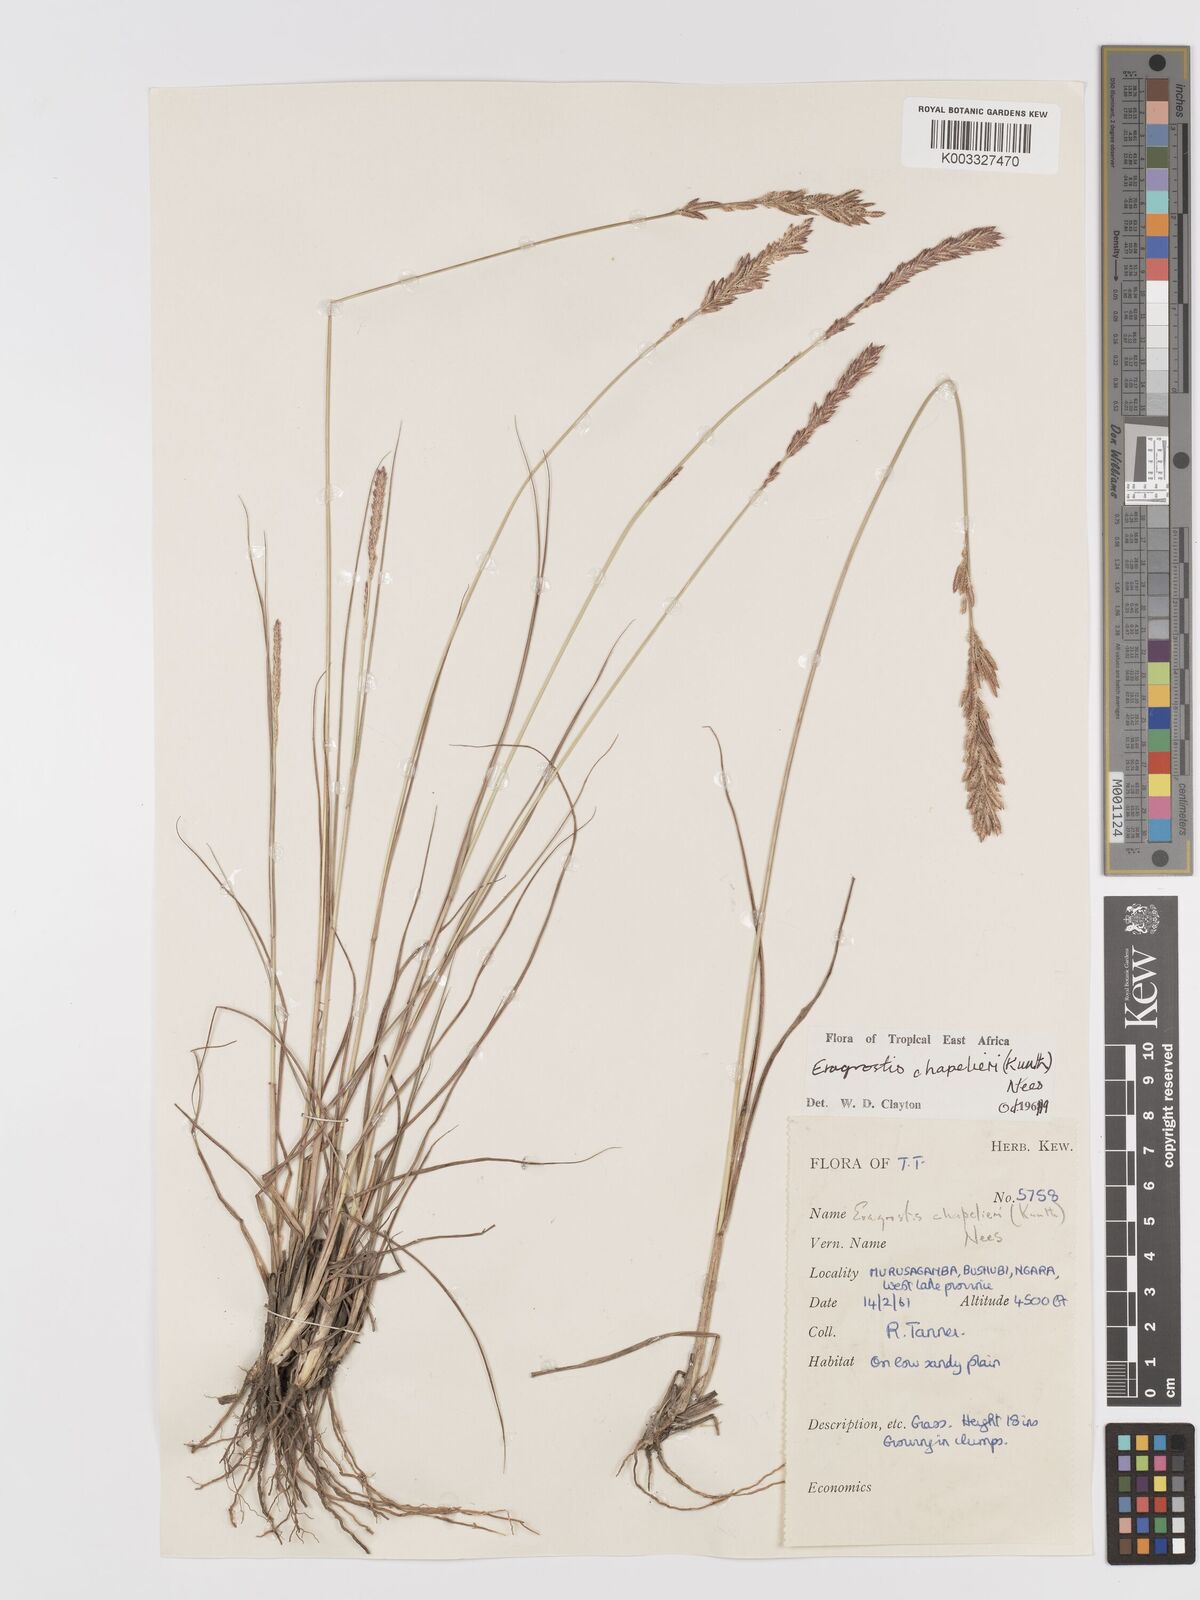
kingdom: Plantae
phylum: Tracheophyta
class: Liliopsida
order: Poales
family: Poaceae
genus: Eragrostis
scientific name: Eragrostis chapelieri
